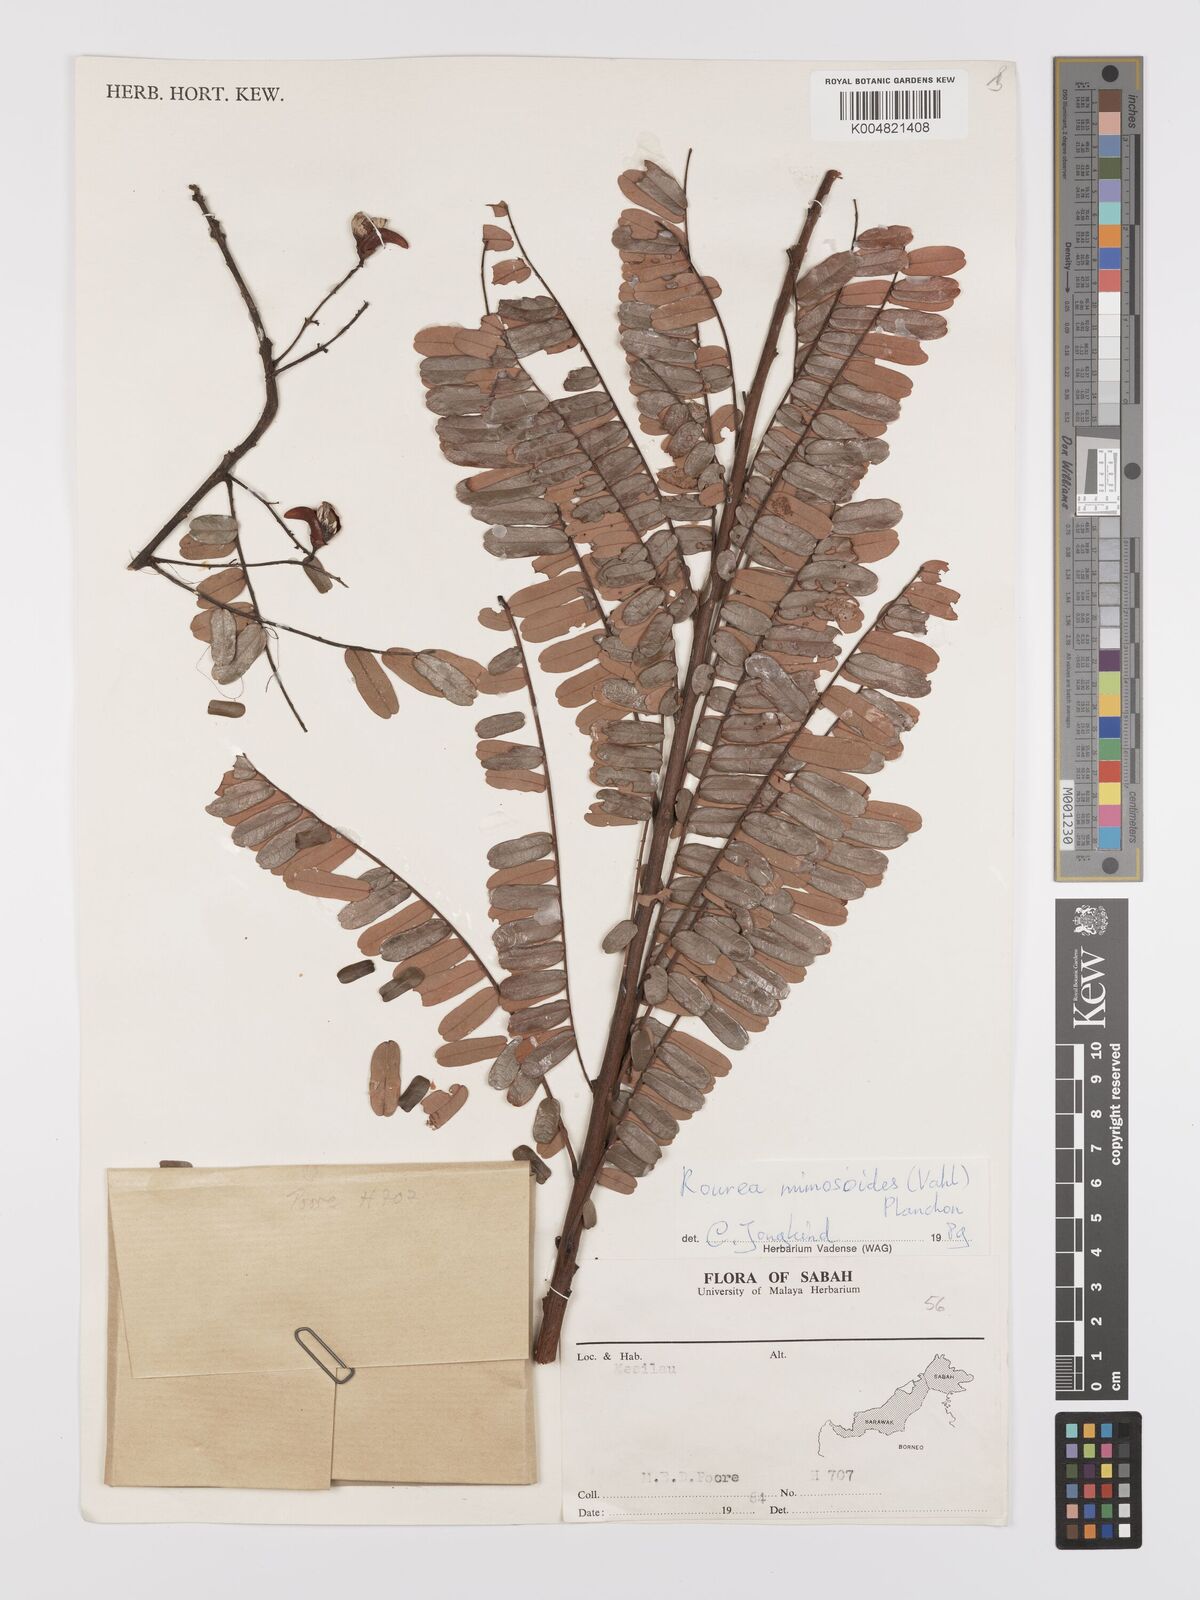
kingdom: Plantae
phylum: Tracheophyta
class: Magnoliopsida
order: Oxalidales
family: Connaraceae
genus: Rourea
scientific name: Rourea mimosoides
